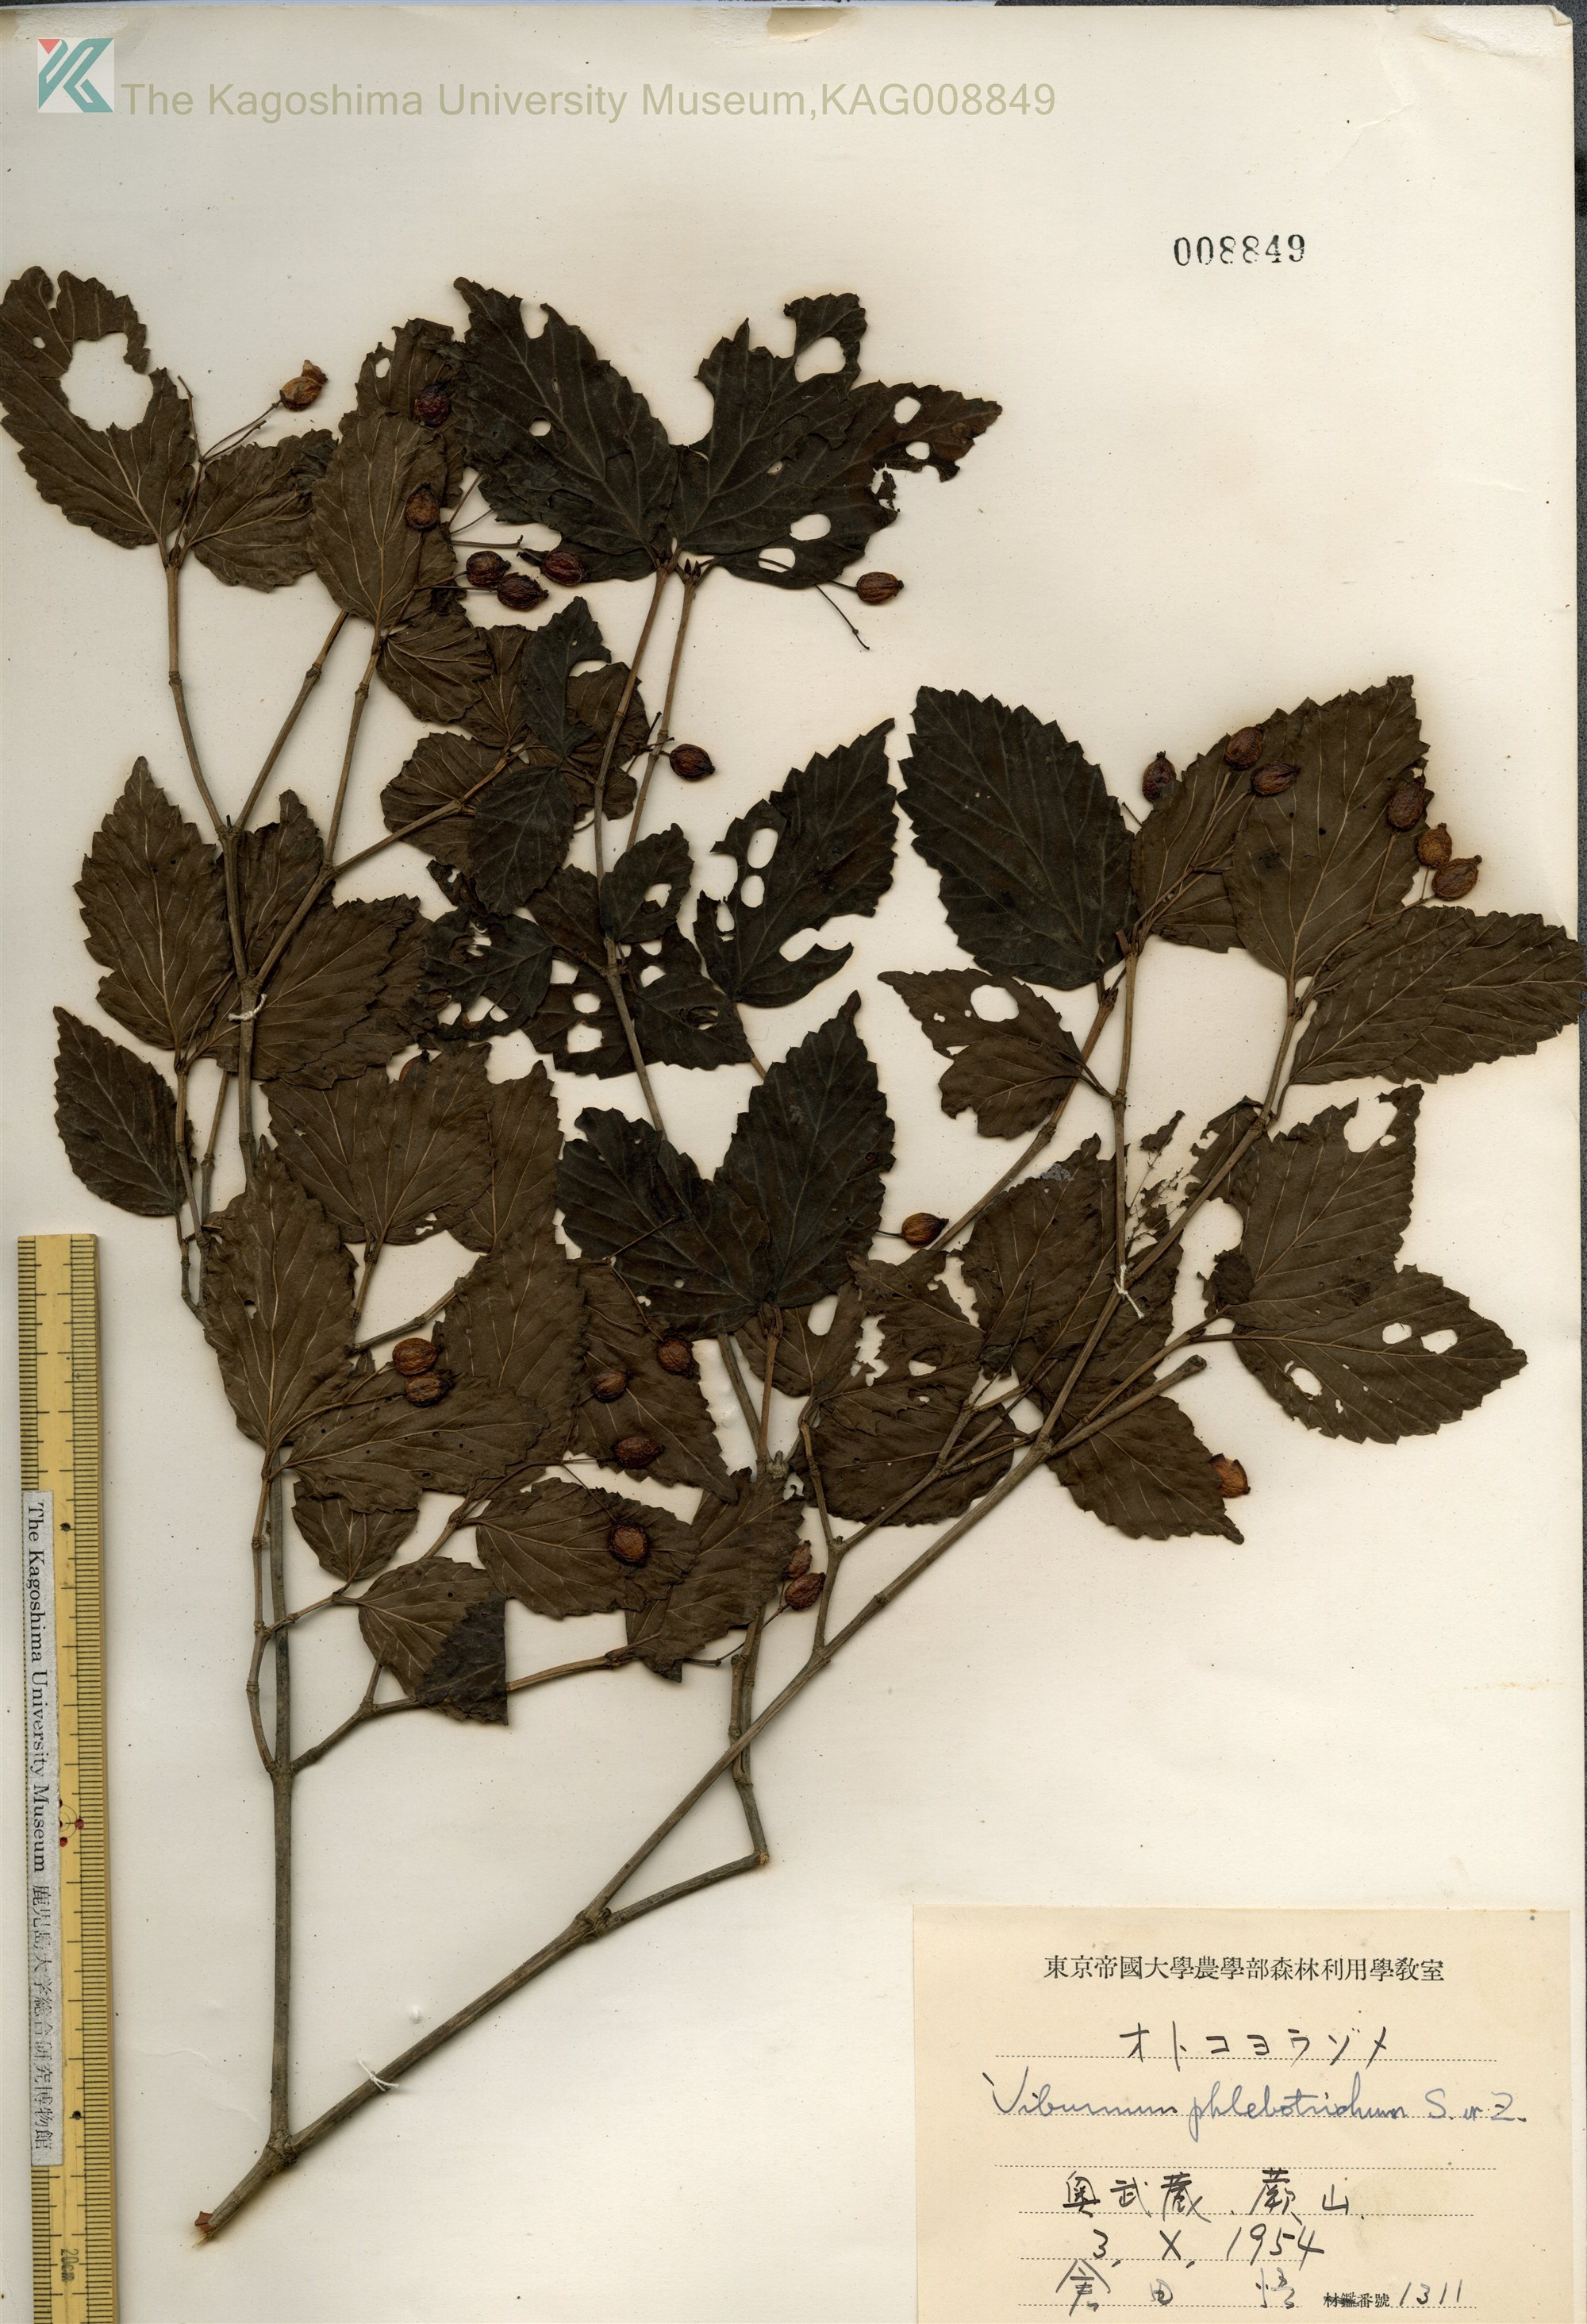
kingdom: Plantae
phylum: Tracheophyta
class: Magnoliopsida
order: Dipsacales
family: Viburnaceae
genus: Viburnum
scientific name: Viburnum phlebotrichum
